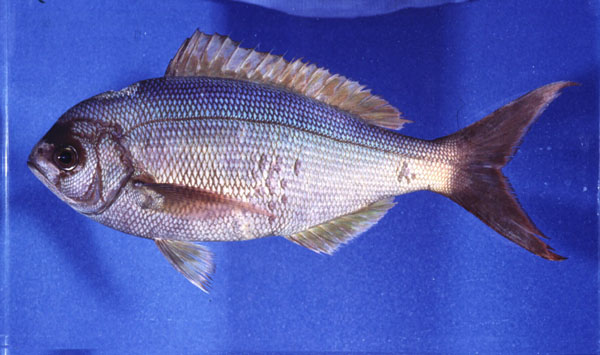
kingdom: Animalia
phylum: Chordata
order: Perciformes
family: Lutjanidae
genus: Paracaesio
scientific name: Paracaesio sordida
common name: Blue snapper
